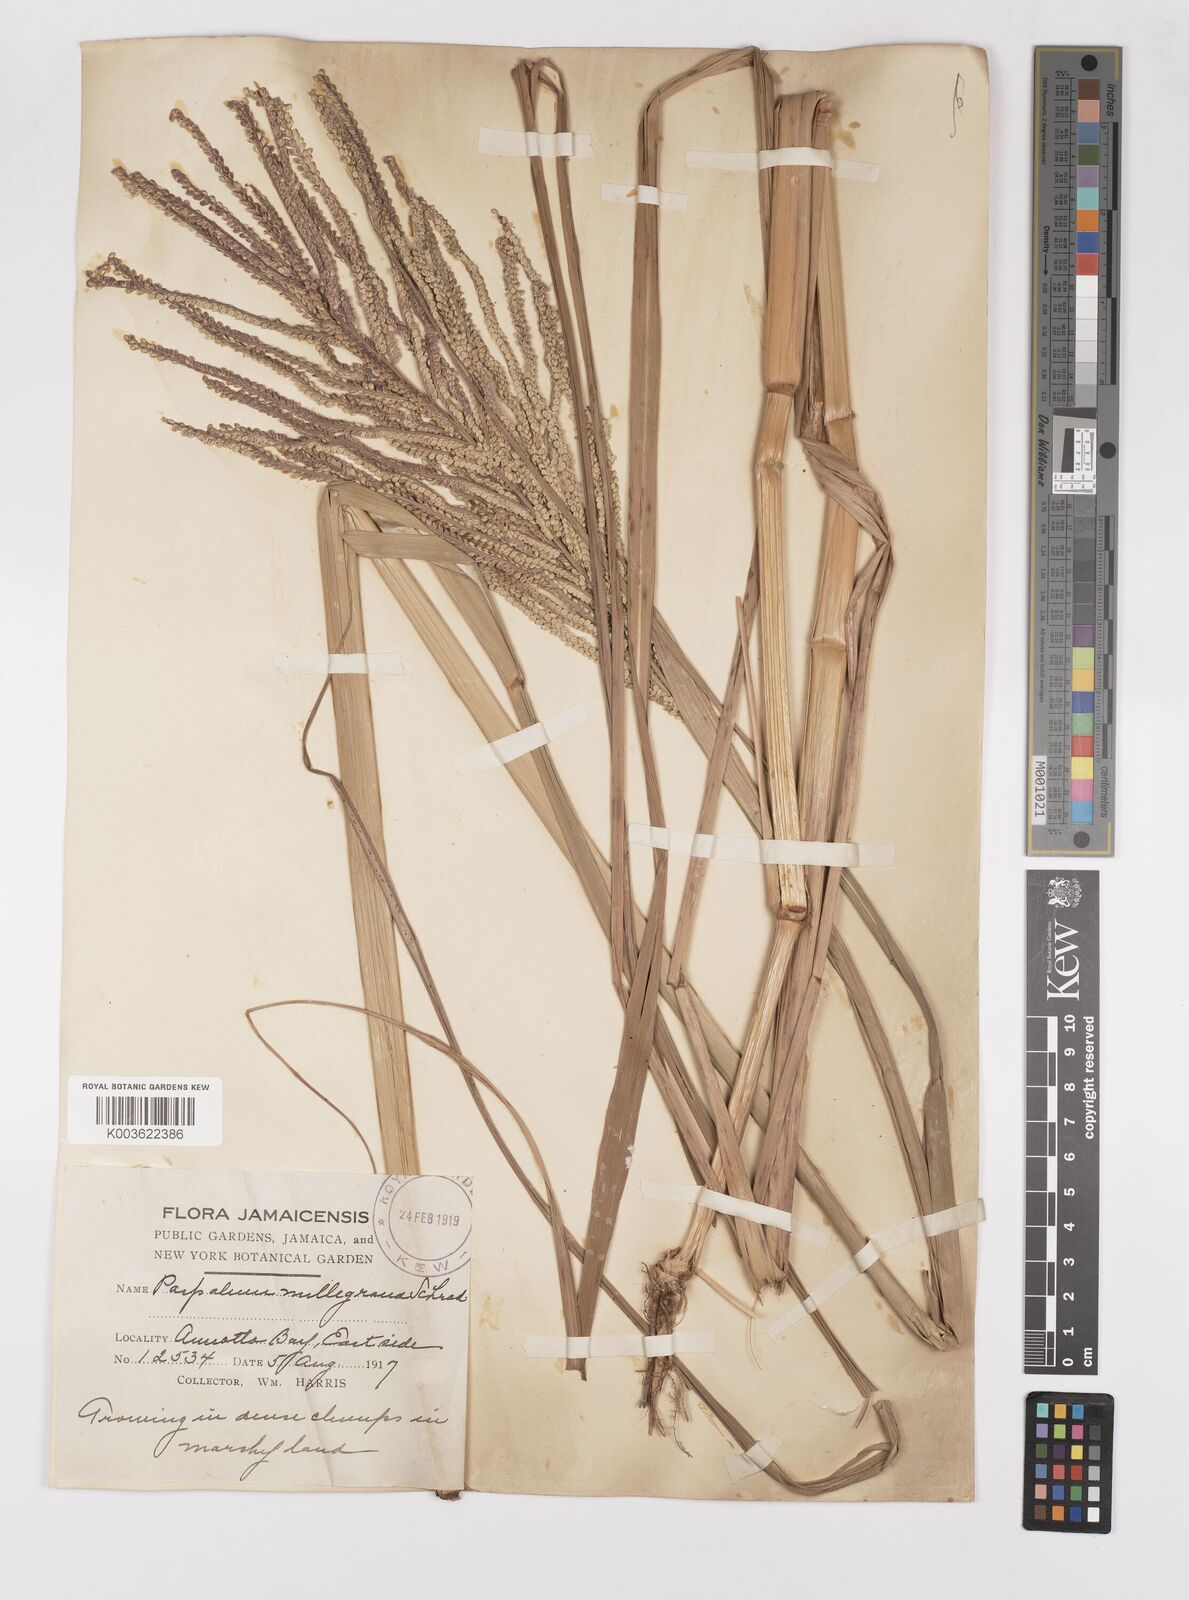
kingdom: Plantae
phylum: Tracheophyta
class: Liliopsida
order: Poales
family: Poaceae
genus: Paspalum
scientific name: Paspalum millegranum
